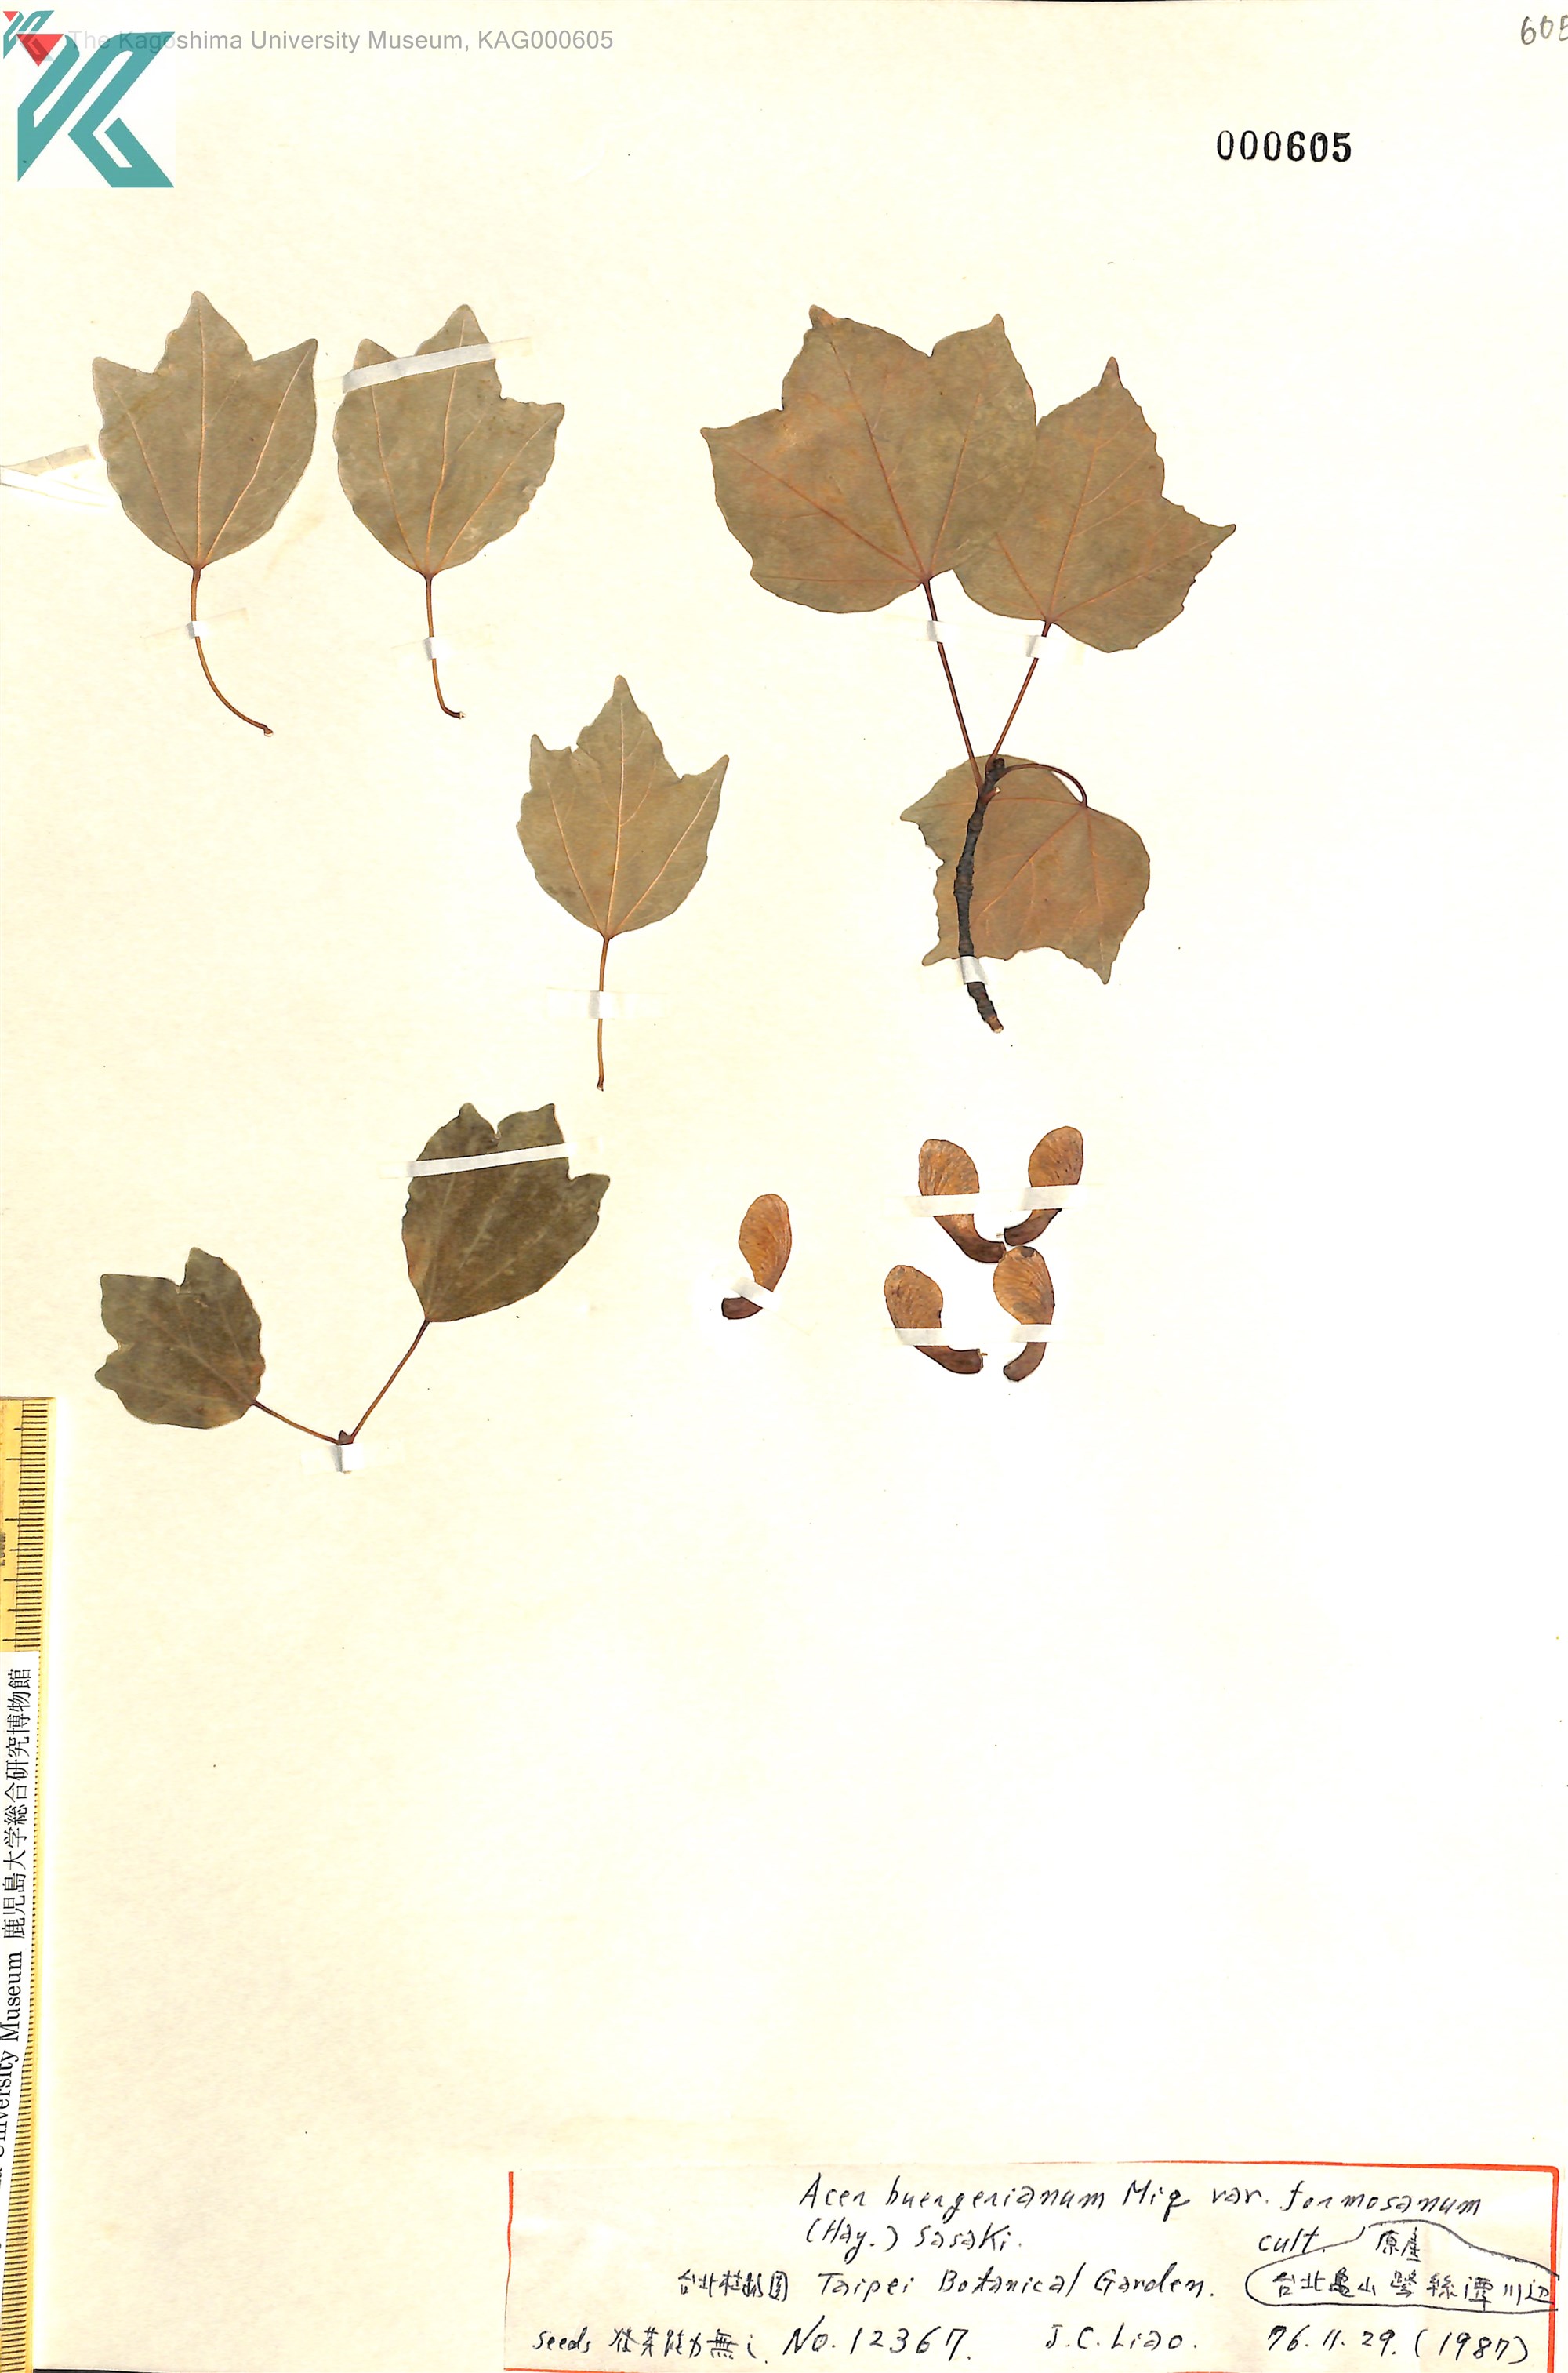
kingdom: Plantae
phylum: Tracheophyta
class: Magnoliopsida
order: Sapindales
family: Sapindaceae
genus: Acer
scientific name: Acer buergerianum
